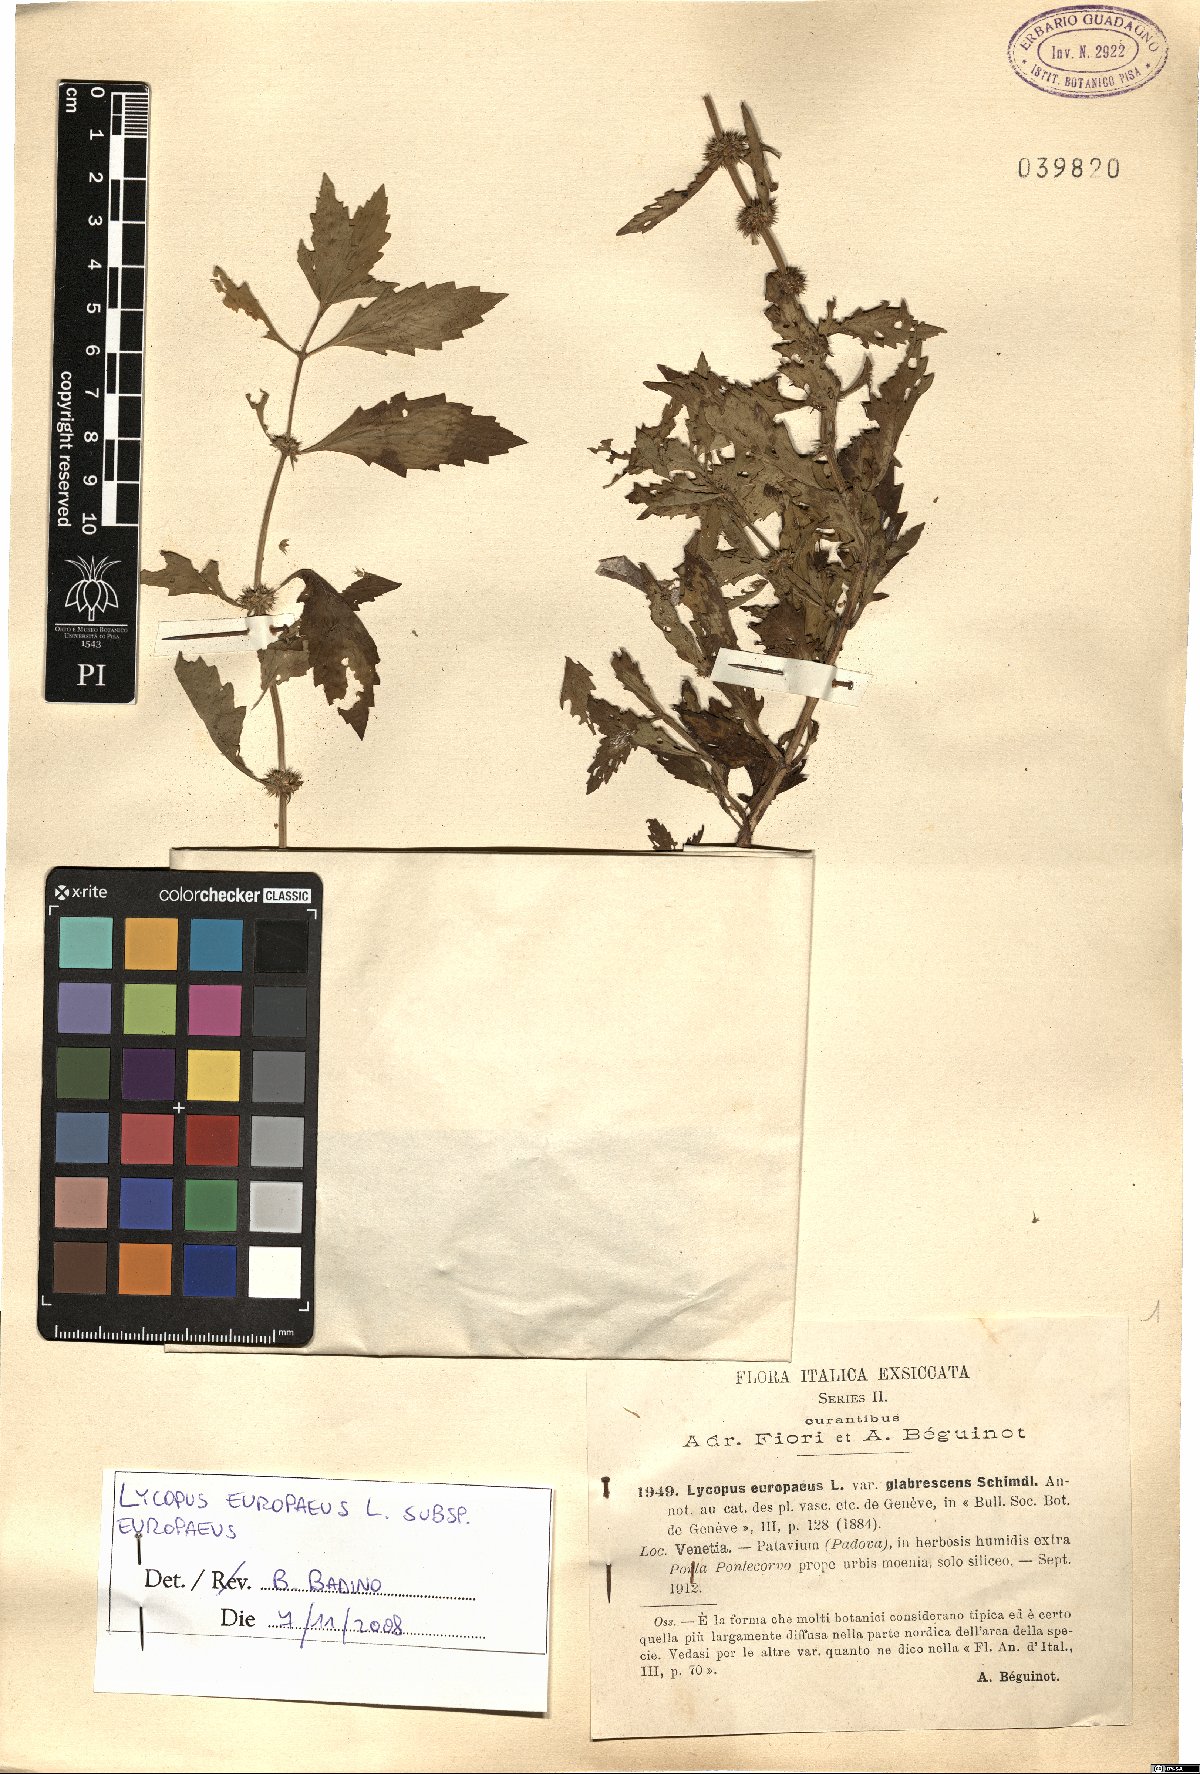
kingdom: Plantae
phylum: Tracheophyta
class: Magnoliopsida
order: Lamiales
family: Lamiaceae
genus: Lycopus
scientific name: Lycopus europaeus
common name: European bugleweed
